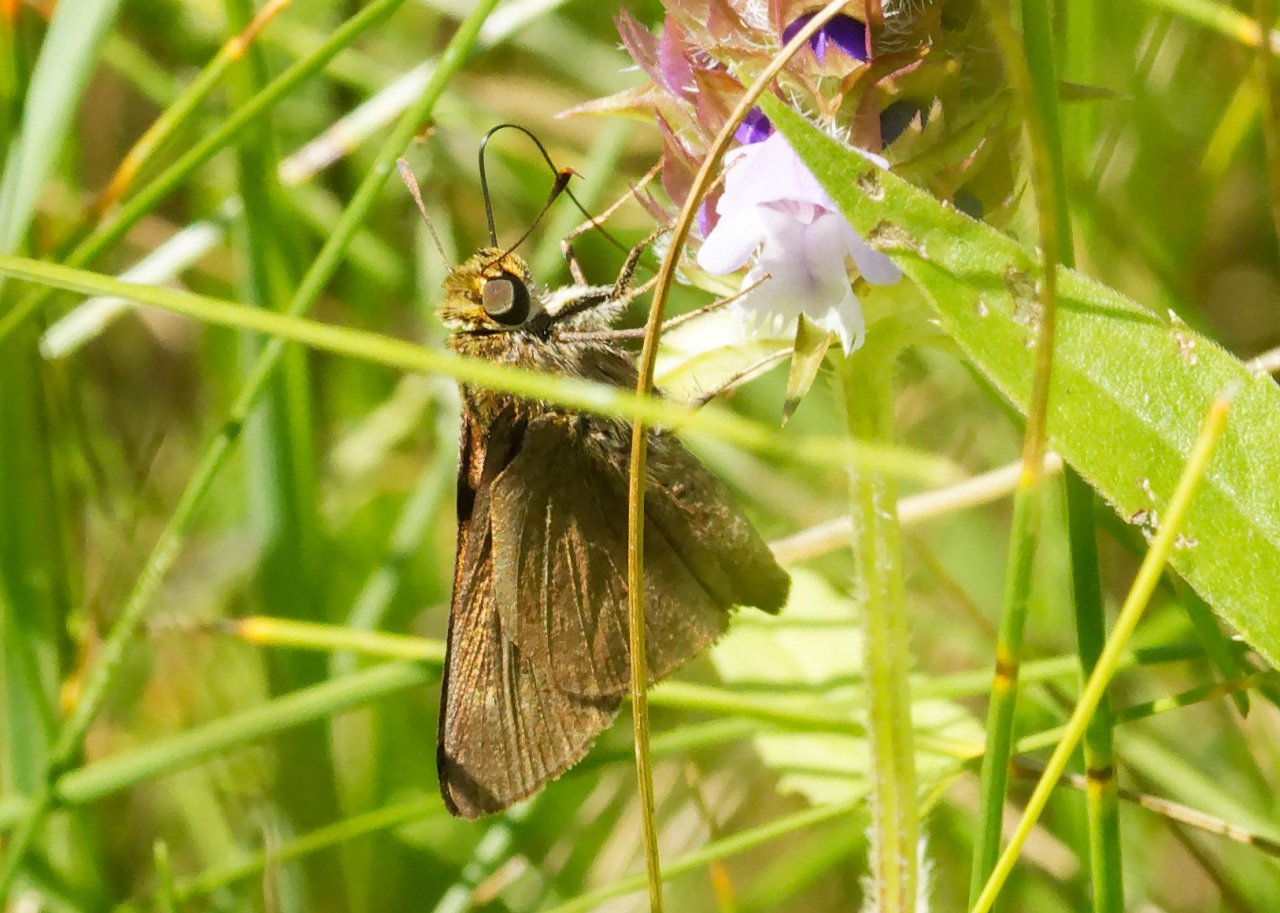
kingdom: Animalia
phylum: Arthropoda
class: Insecta
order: Lepidoptera
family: Hesperiidae
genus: Euphyes
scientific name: Euphyes vestris
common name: Dun Skipper
